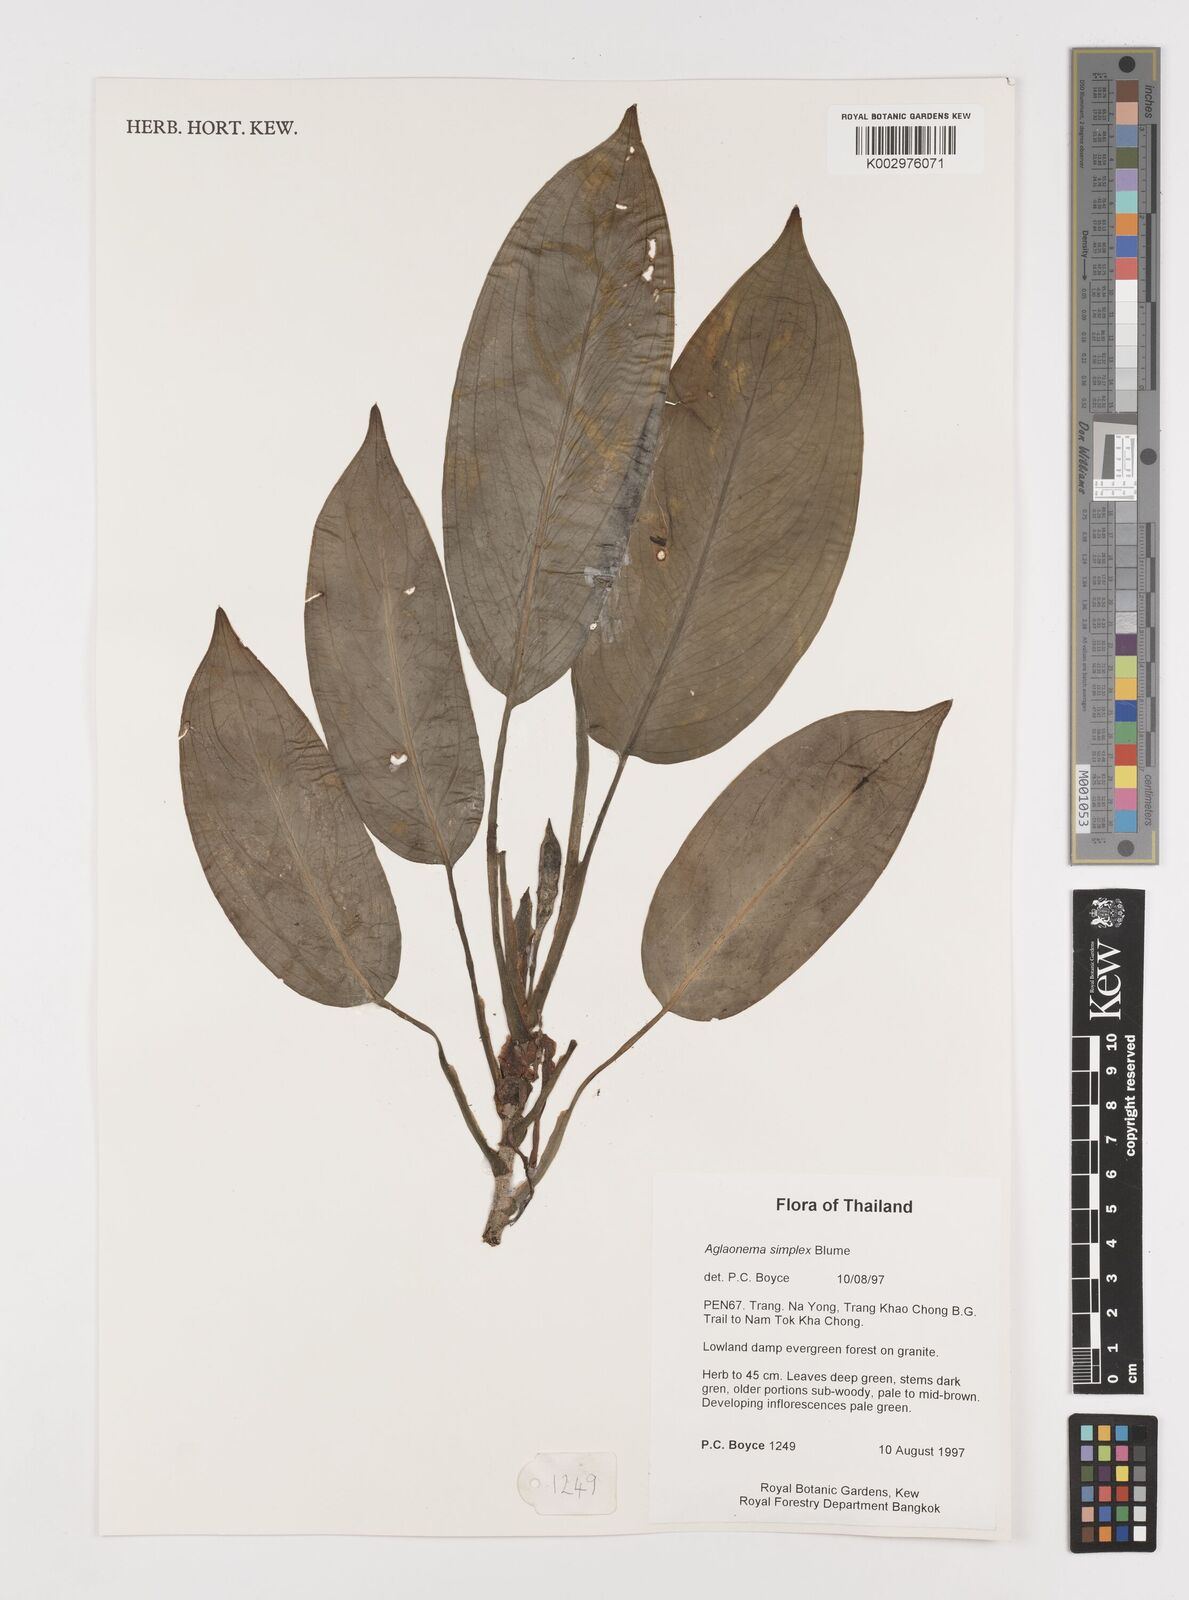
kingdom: Plantae
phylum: Tracheophyta
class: Liliopsida
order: Alismatales
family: Araceae
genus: Aglaonema
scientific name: Aglaonema simplex
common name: Malayan-sword
